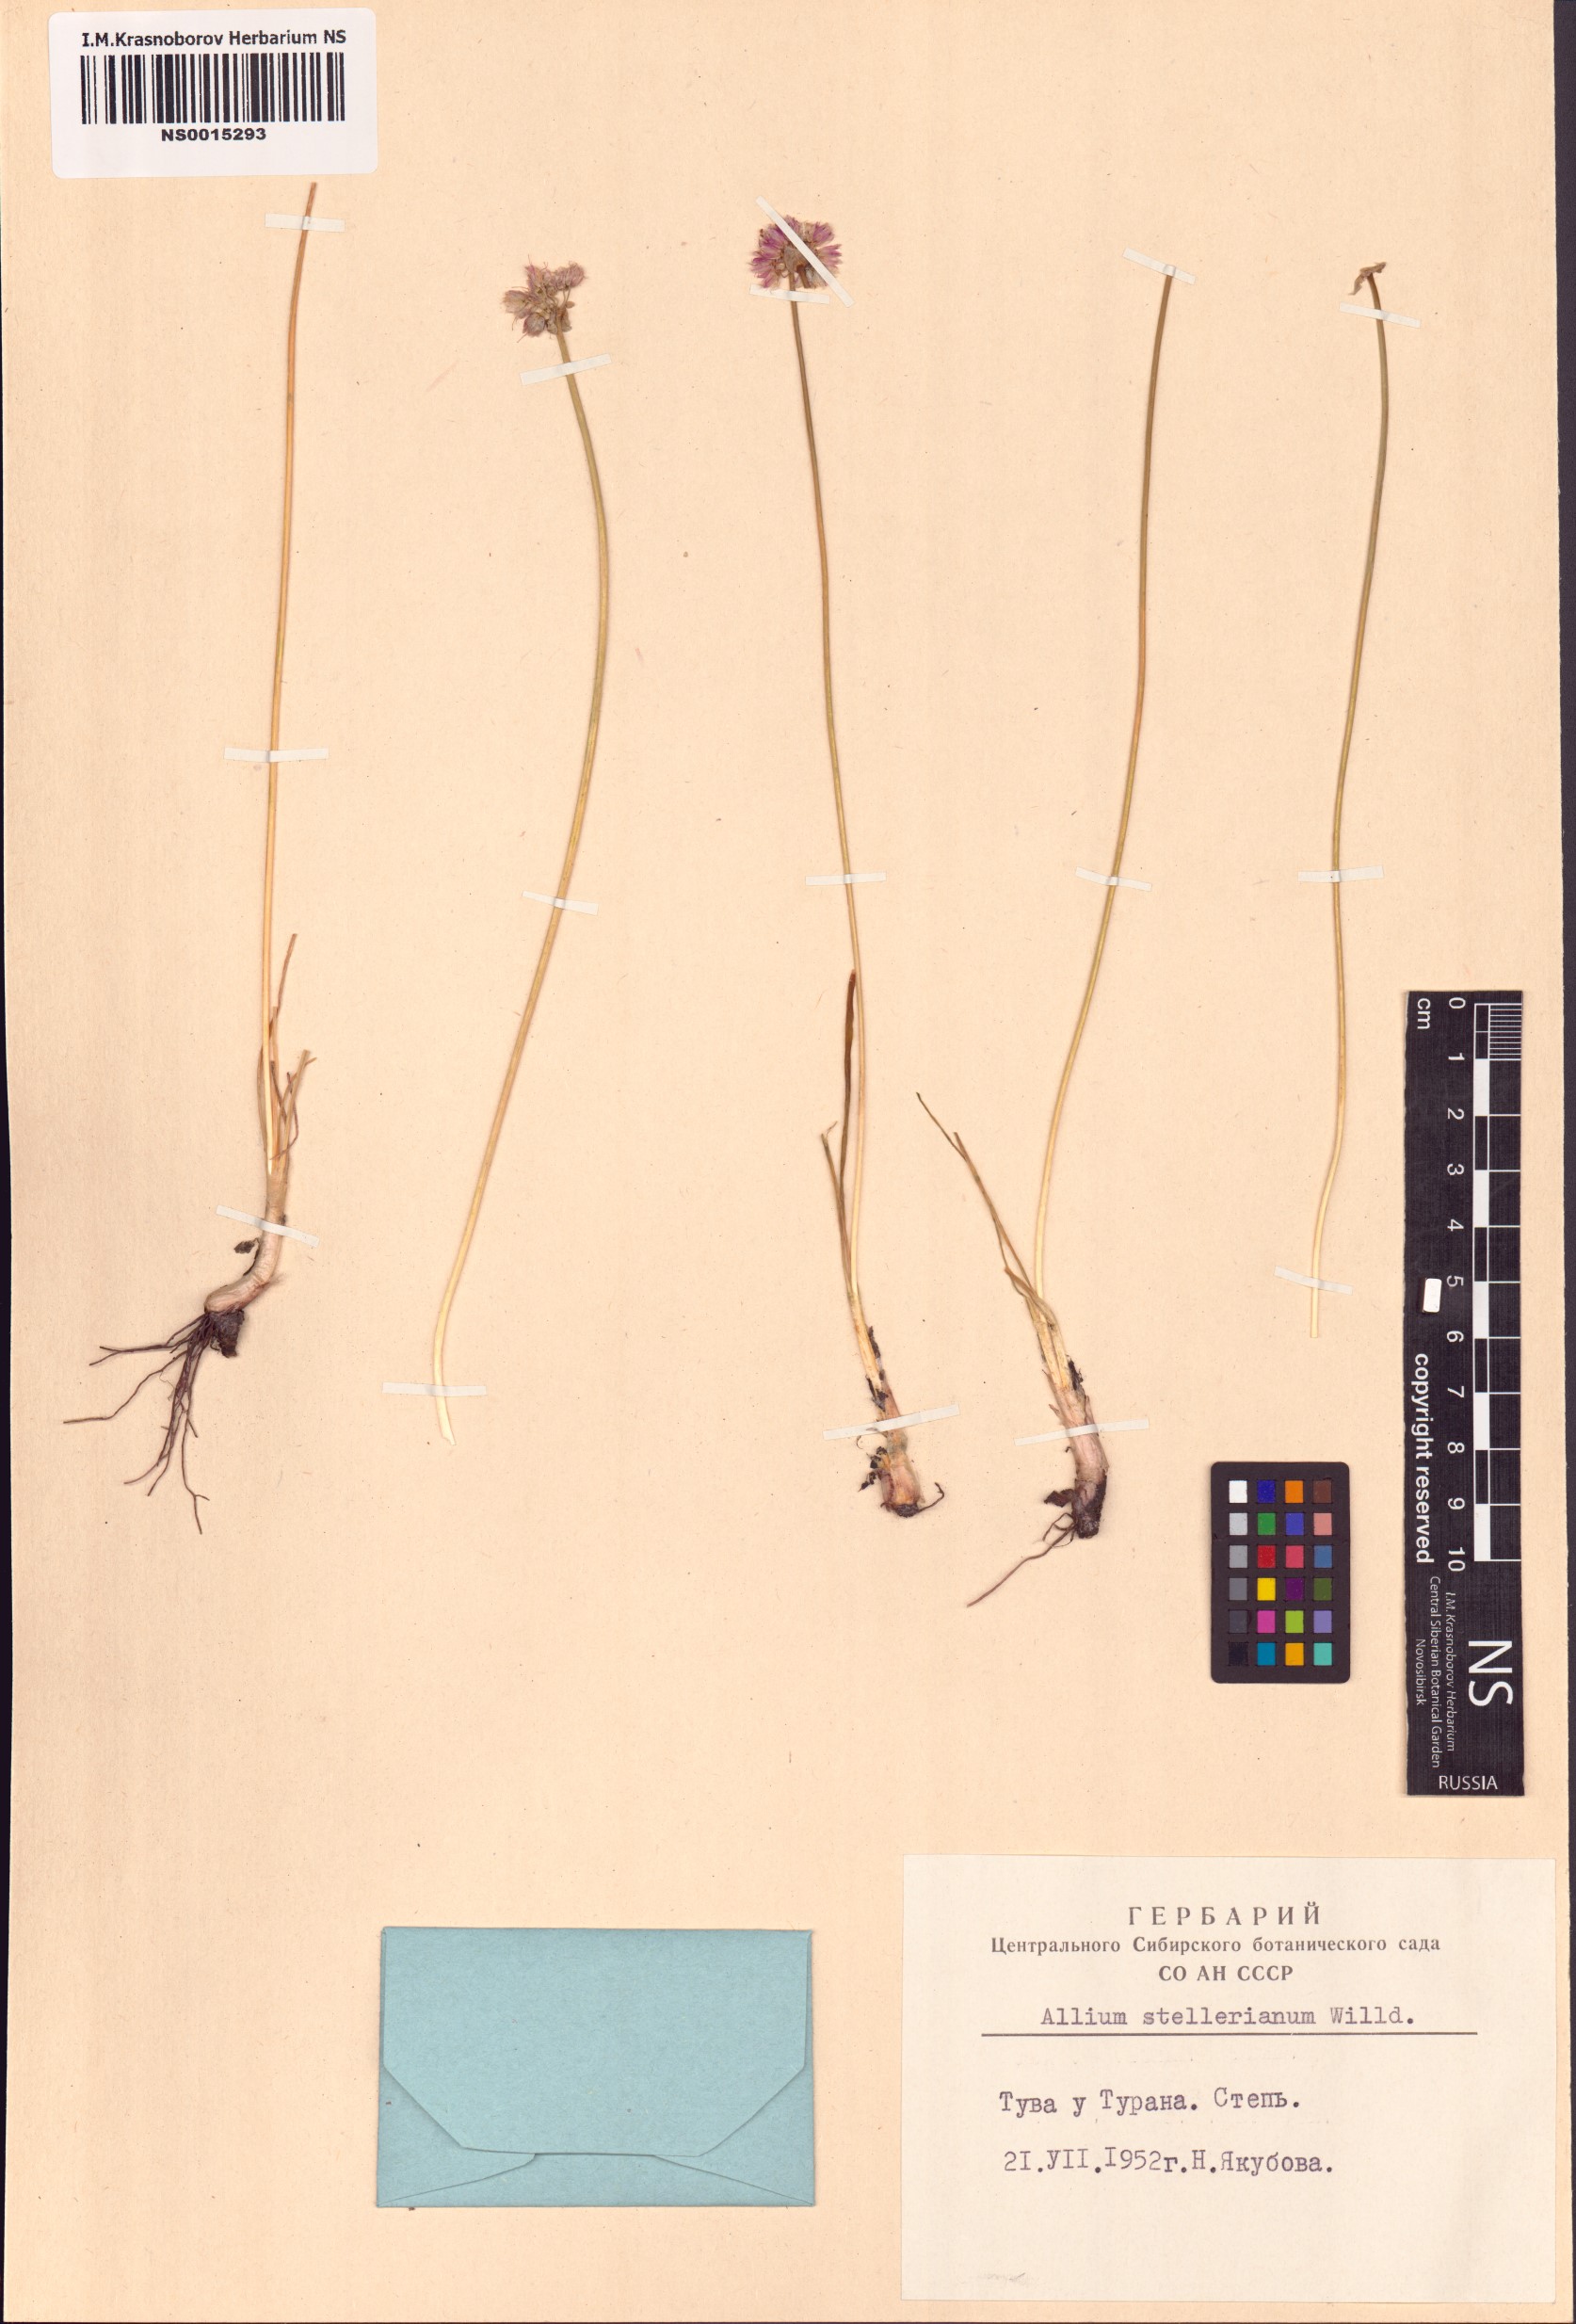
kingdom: Plantae
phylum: Tracheophyta
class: Liliopsida
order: Asparagales
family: Amaryllidaceae
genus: Allium
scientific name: Allium stellerianum
